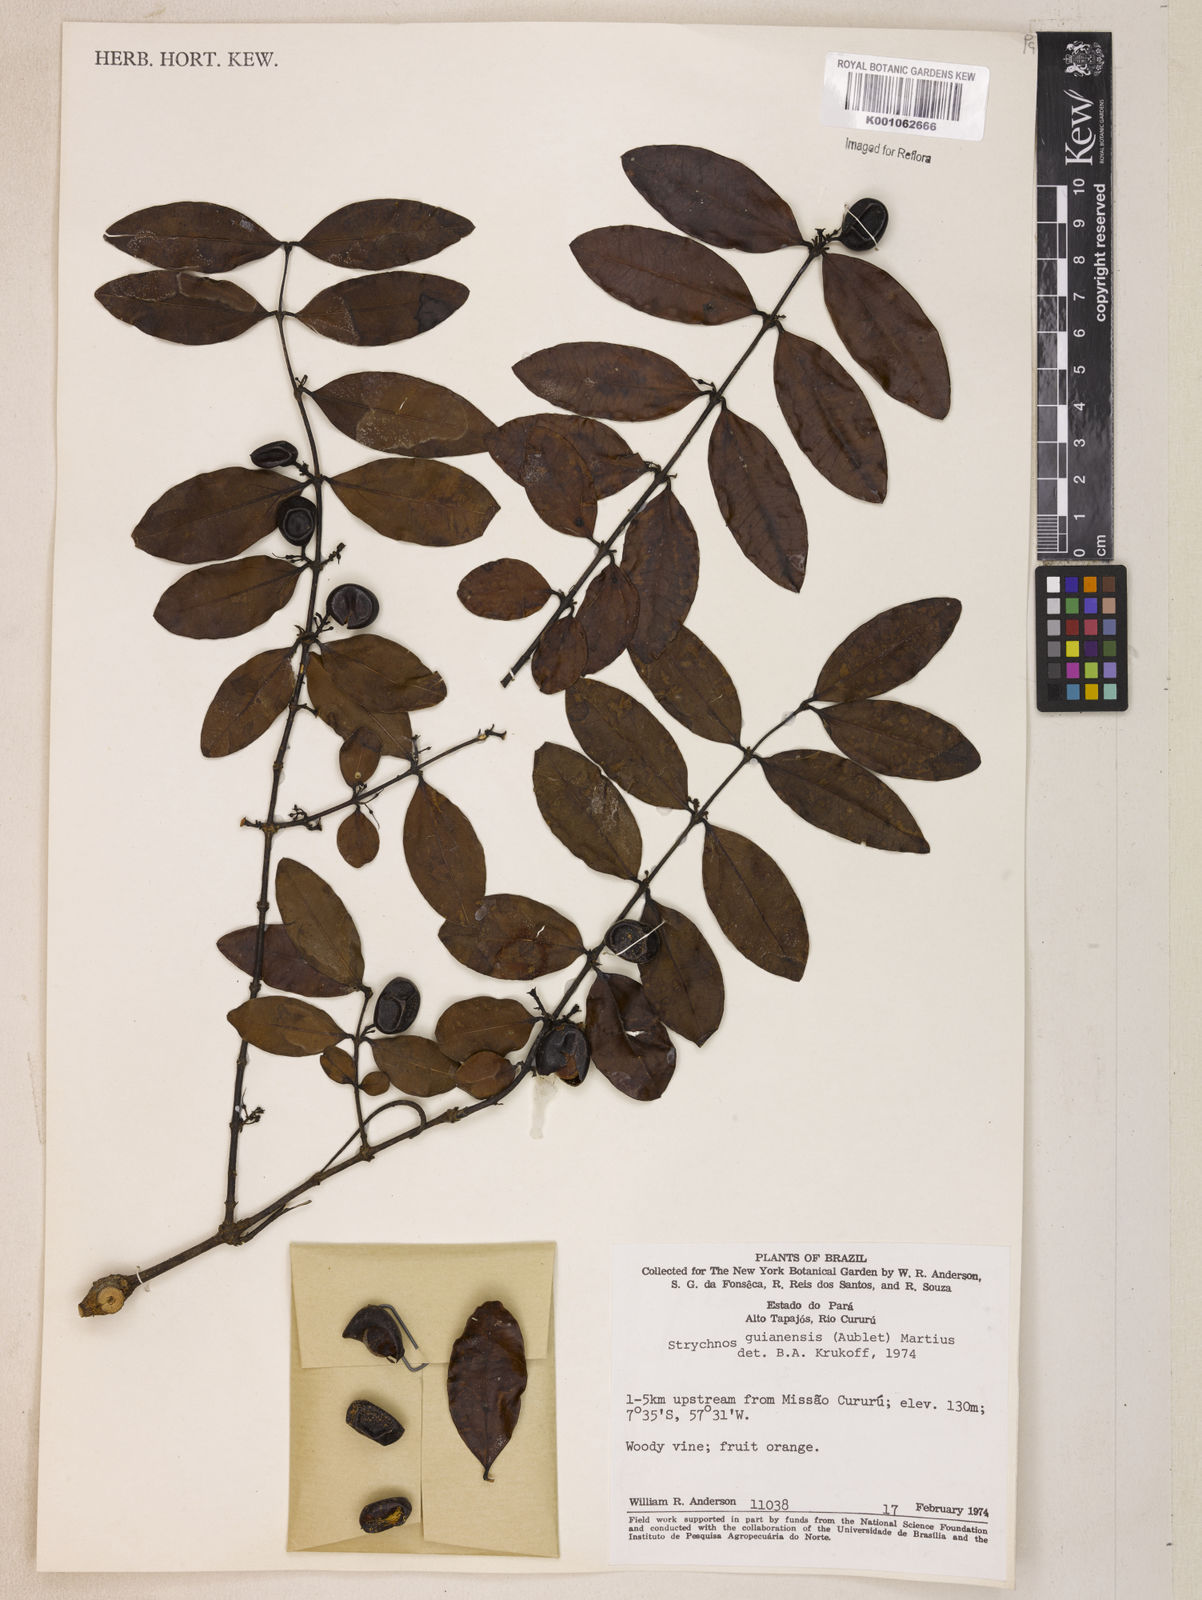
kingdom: Plantae
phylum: Tracheophyta
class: Magnoliopsida
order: Gentianales
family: Loganiaceae
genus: Strychnos
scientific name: Strychnos guianensis
